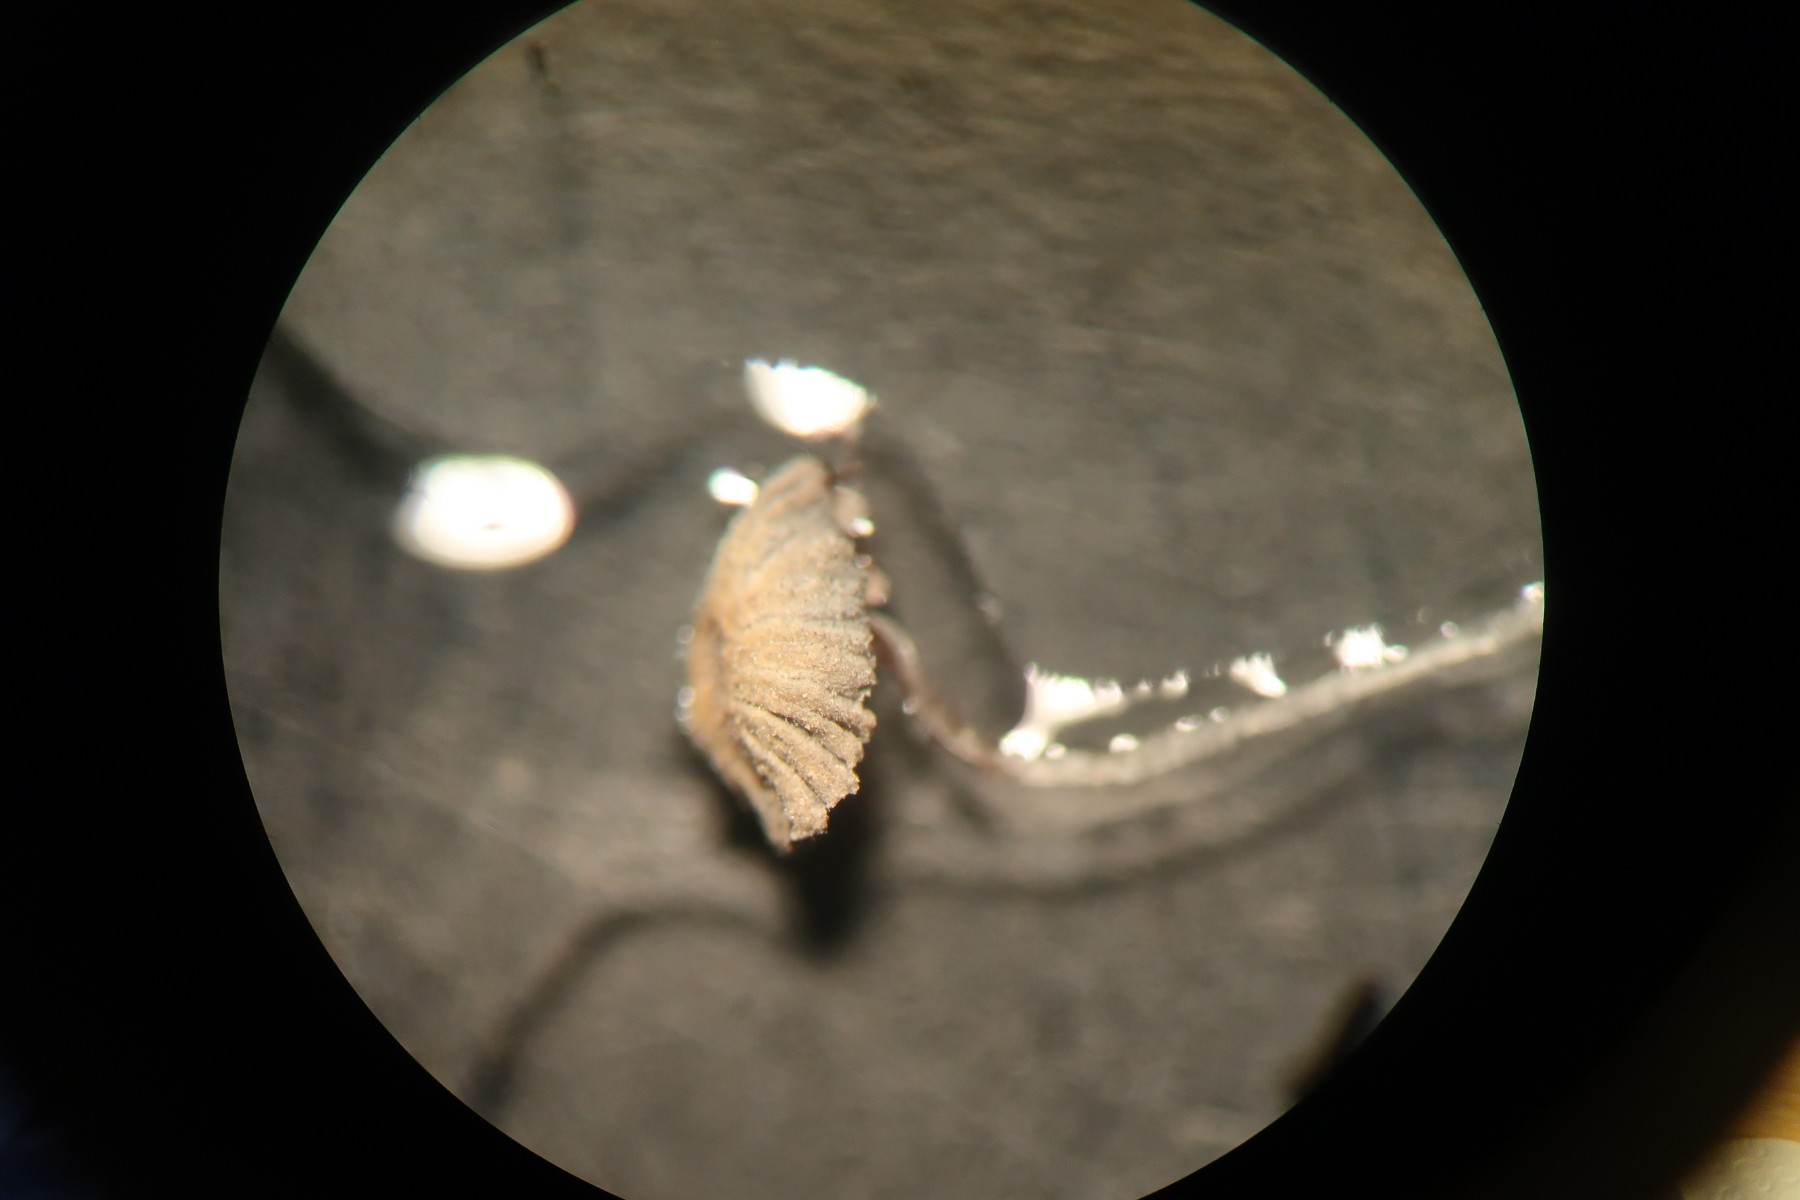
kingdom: Fungi
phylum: Basidiomycota
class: Agaricomycetes
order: Agaricales
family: Psathyrellaceae
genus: Tulosesus
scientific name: Tulosesus doverii
